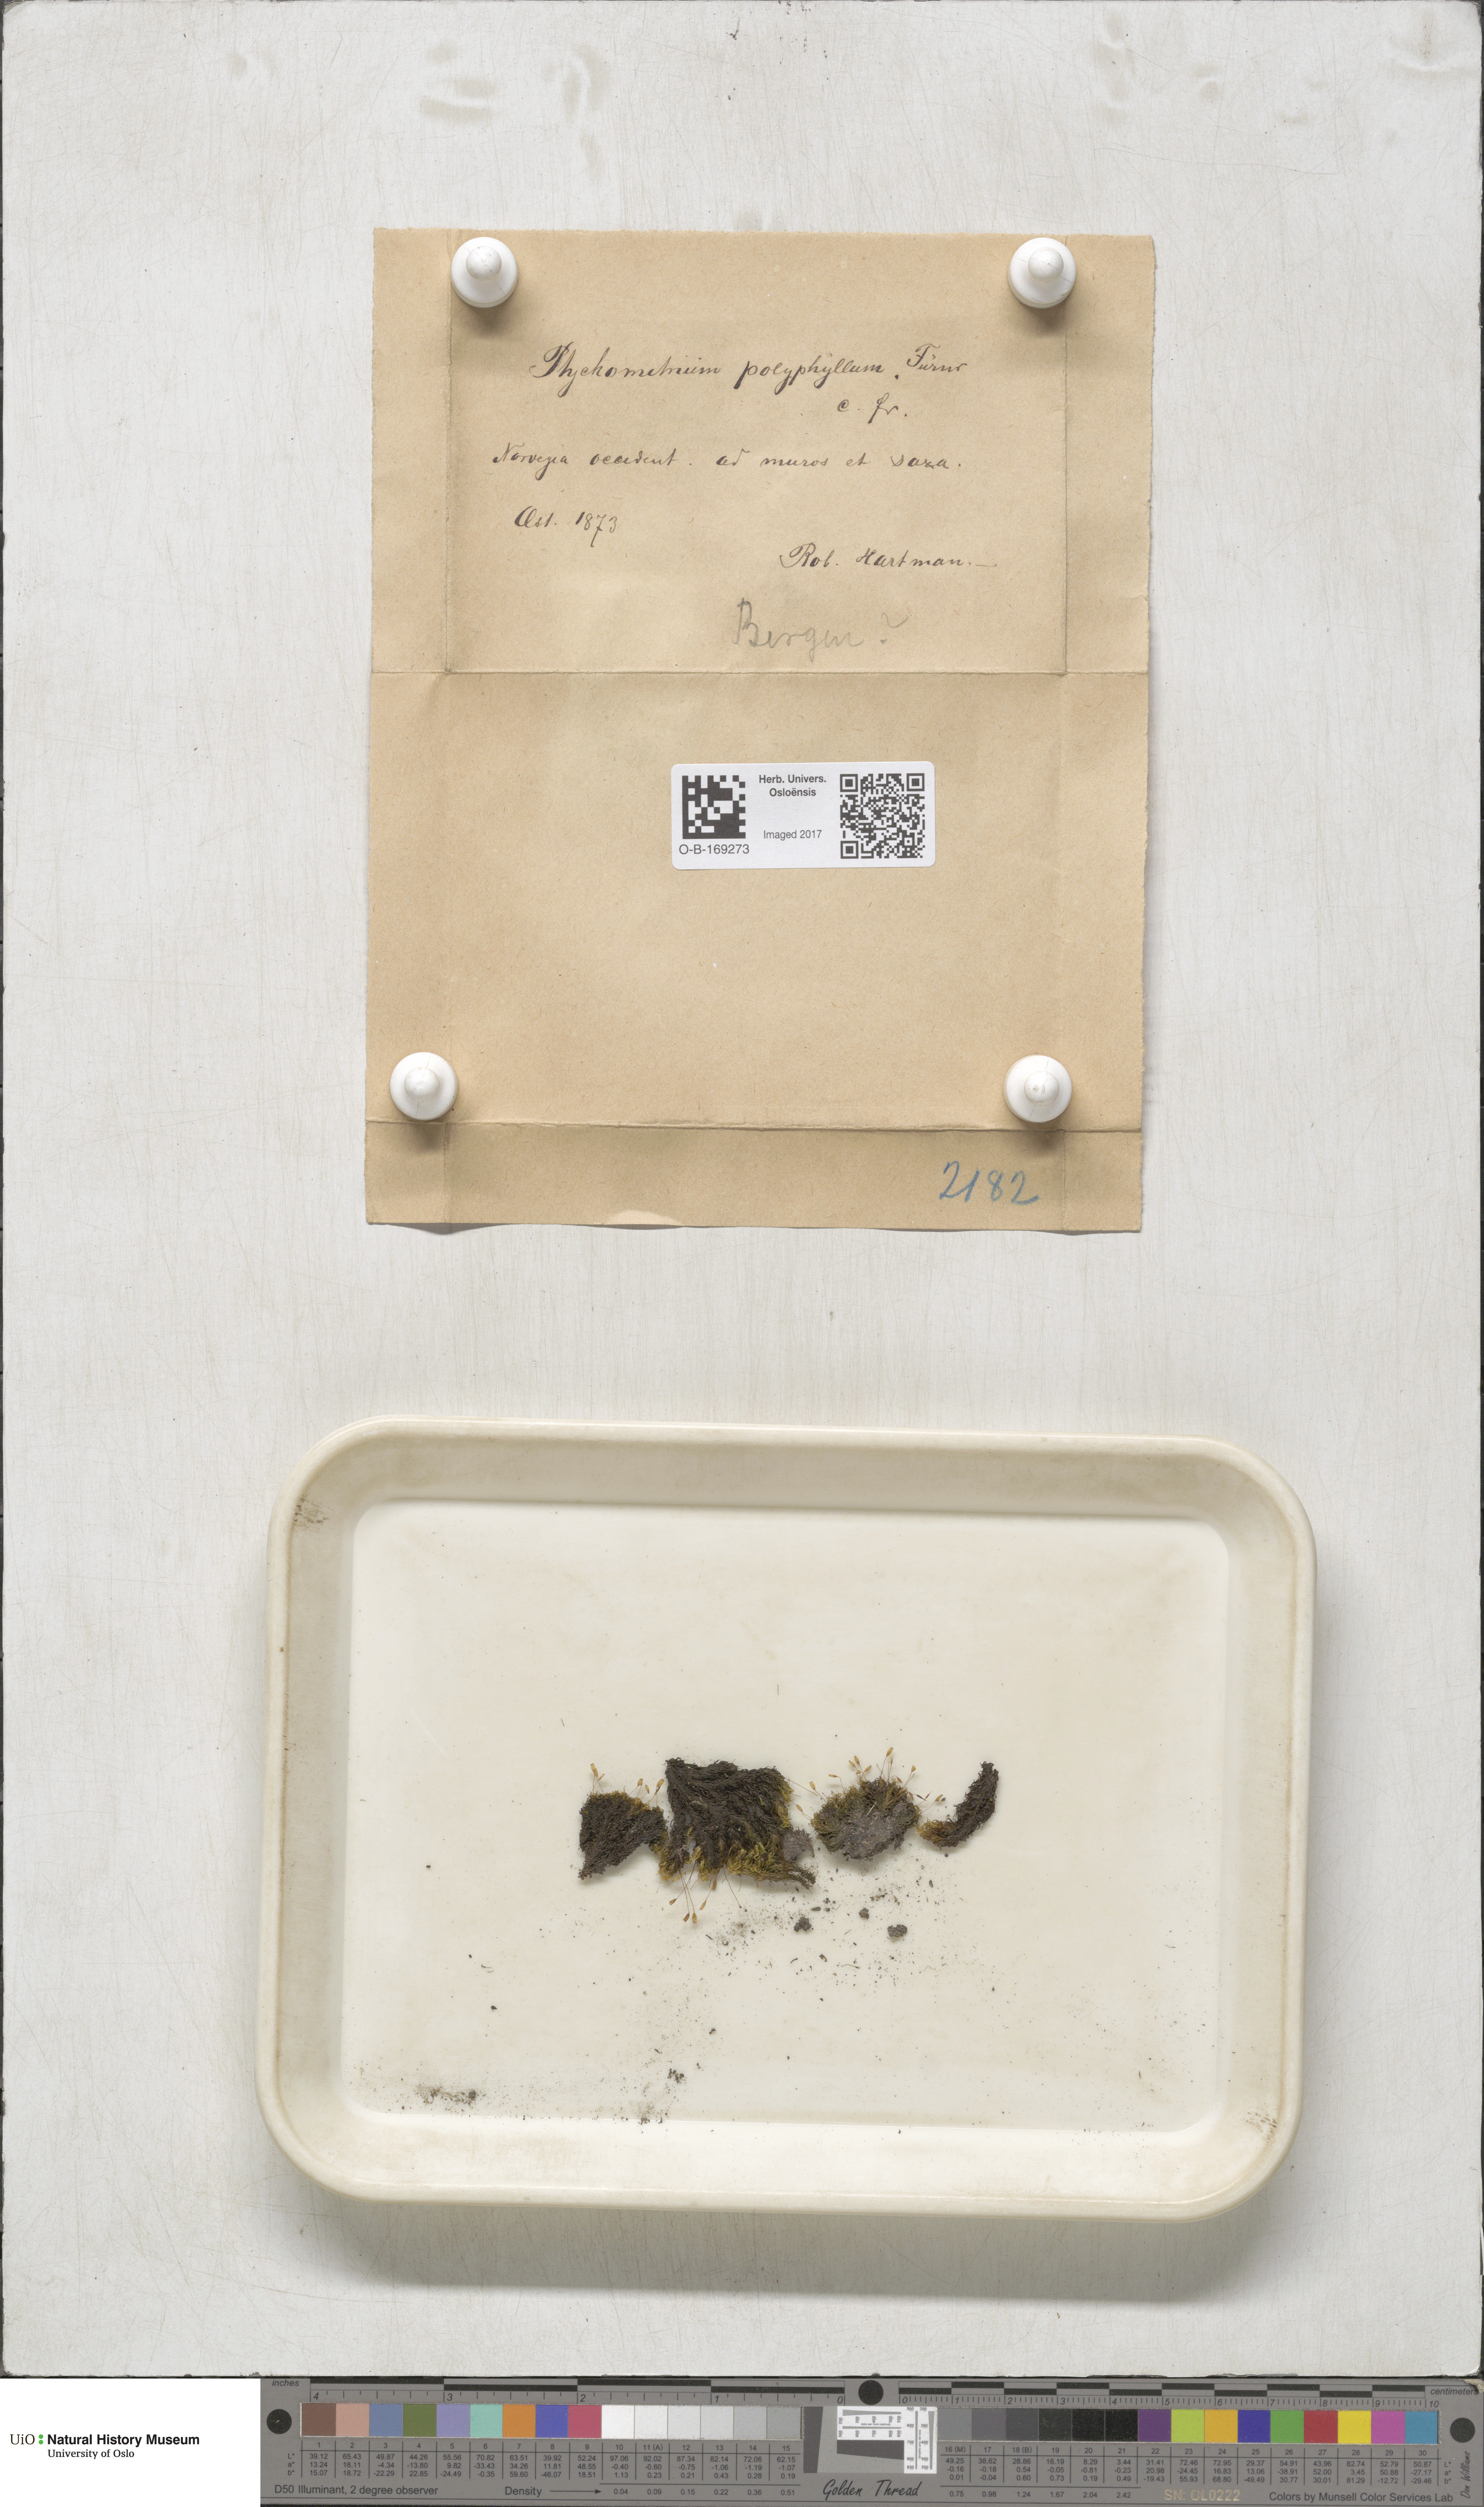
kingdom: Plantae
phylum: Bryophyta
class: Bryopsida
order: Grimmiales
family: Ptychomitriaceae
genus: Ptychomitrium
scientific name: Ptychomitrium polyphyllum
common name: Greater pincushion
